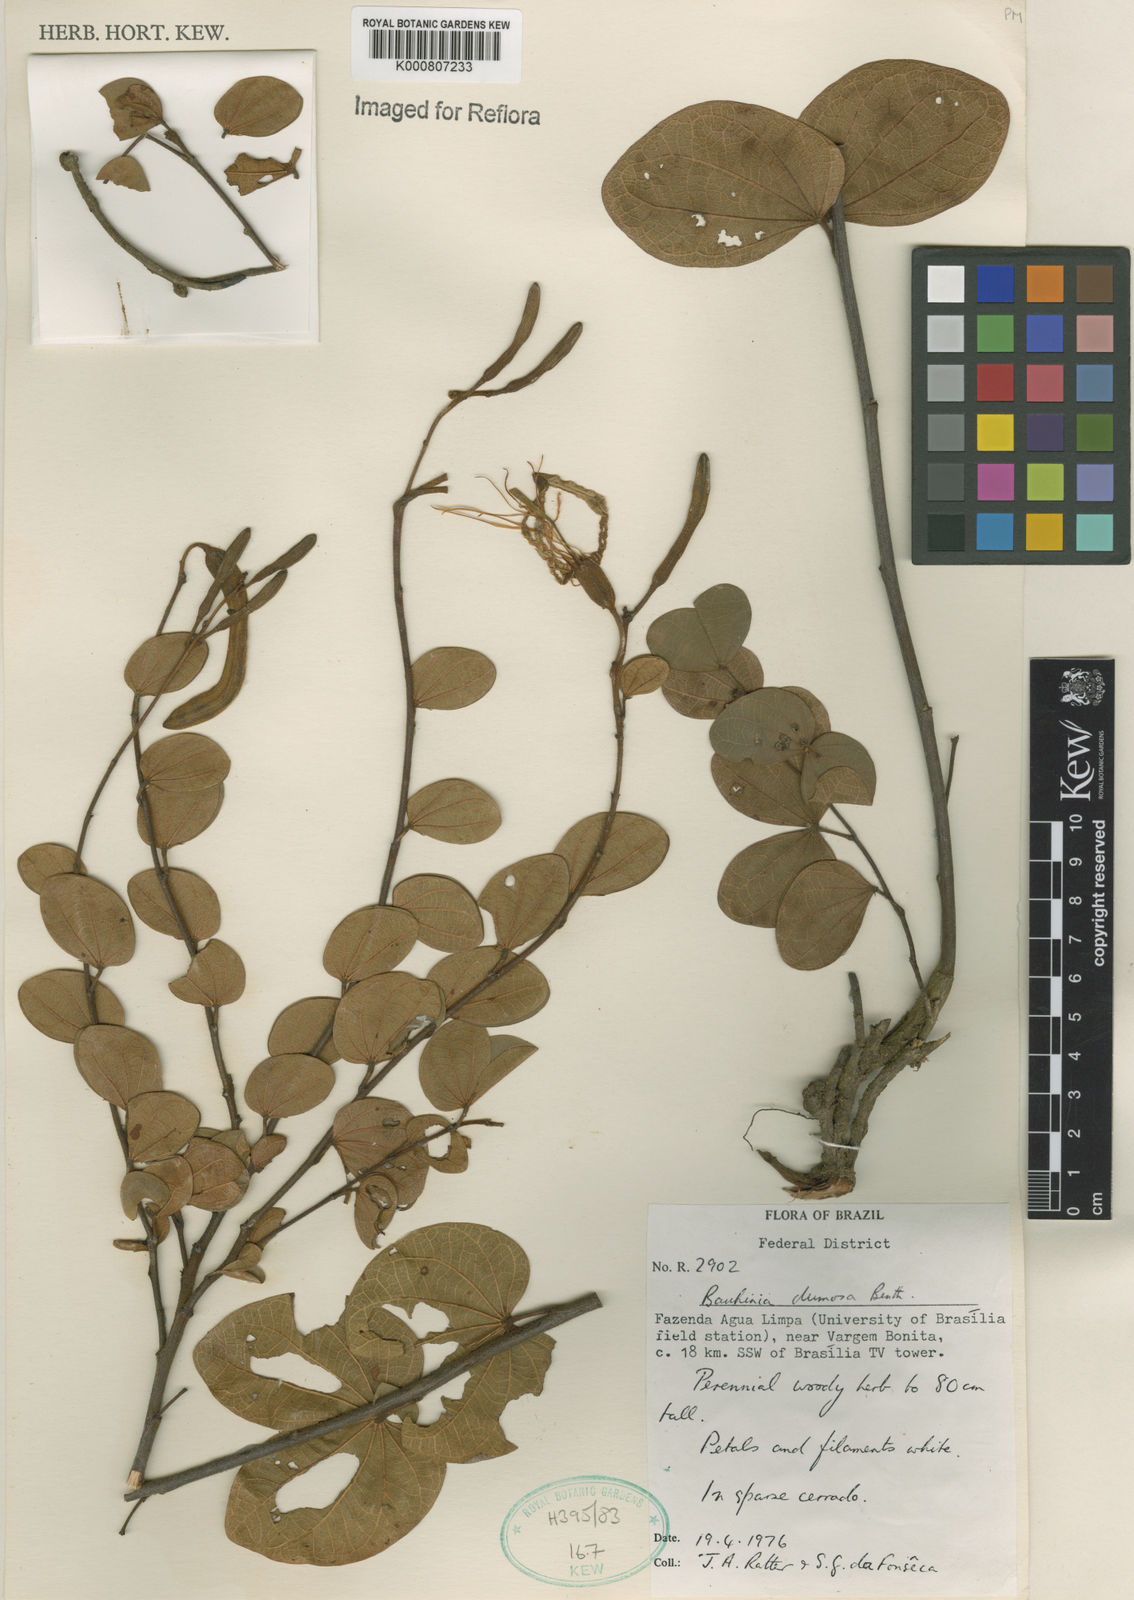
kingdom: Plantae
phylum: Tracheophyta
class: Magnoliopsida
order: Fabales
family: Fabaceae
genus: Bauhinia
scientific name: Bauhinia dumosa
